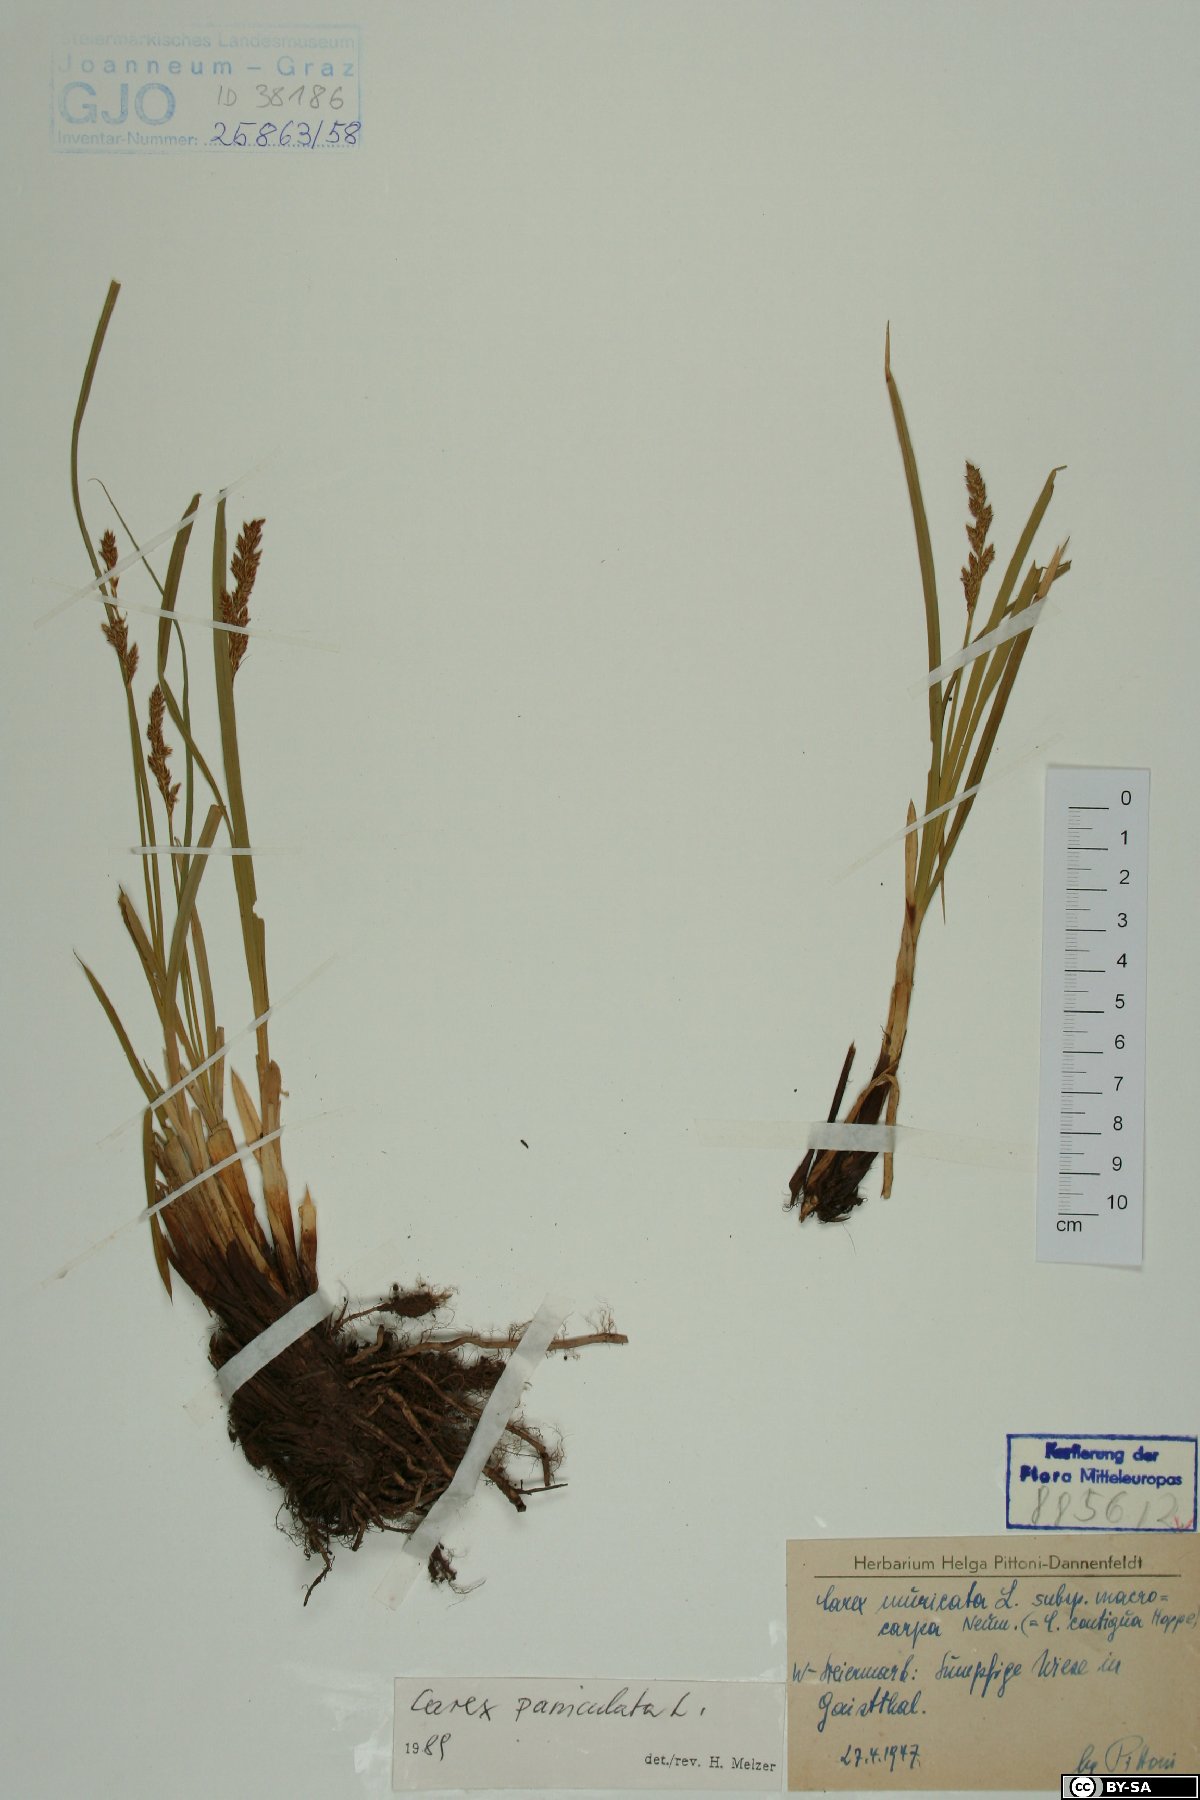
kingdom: Plantae
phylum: Tracheophyta
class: Liliopsida
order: Poales
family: Cyperaceae
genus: Carex
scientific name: Carex paniculata
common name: Greater tussock-sedge
